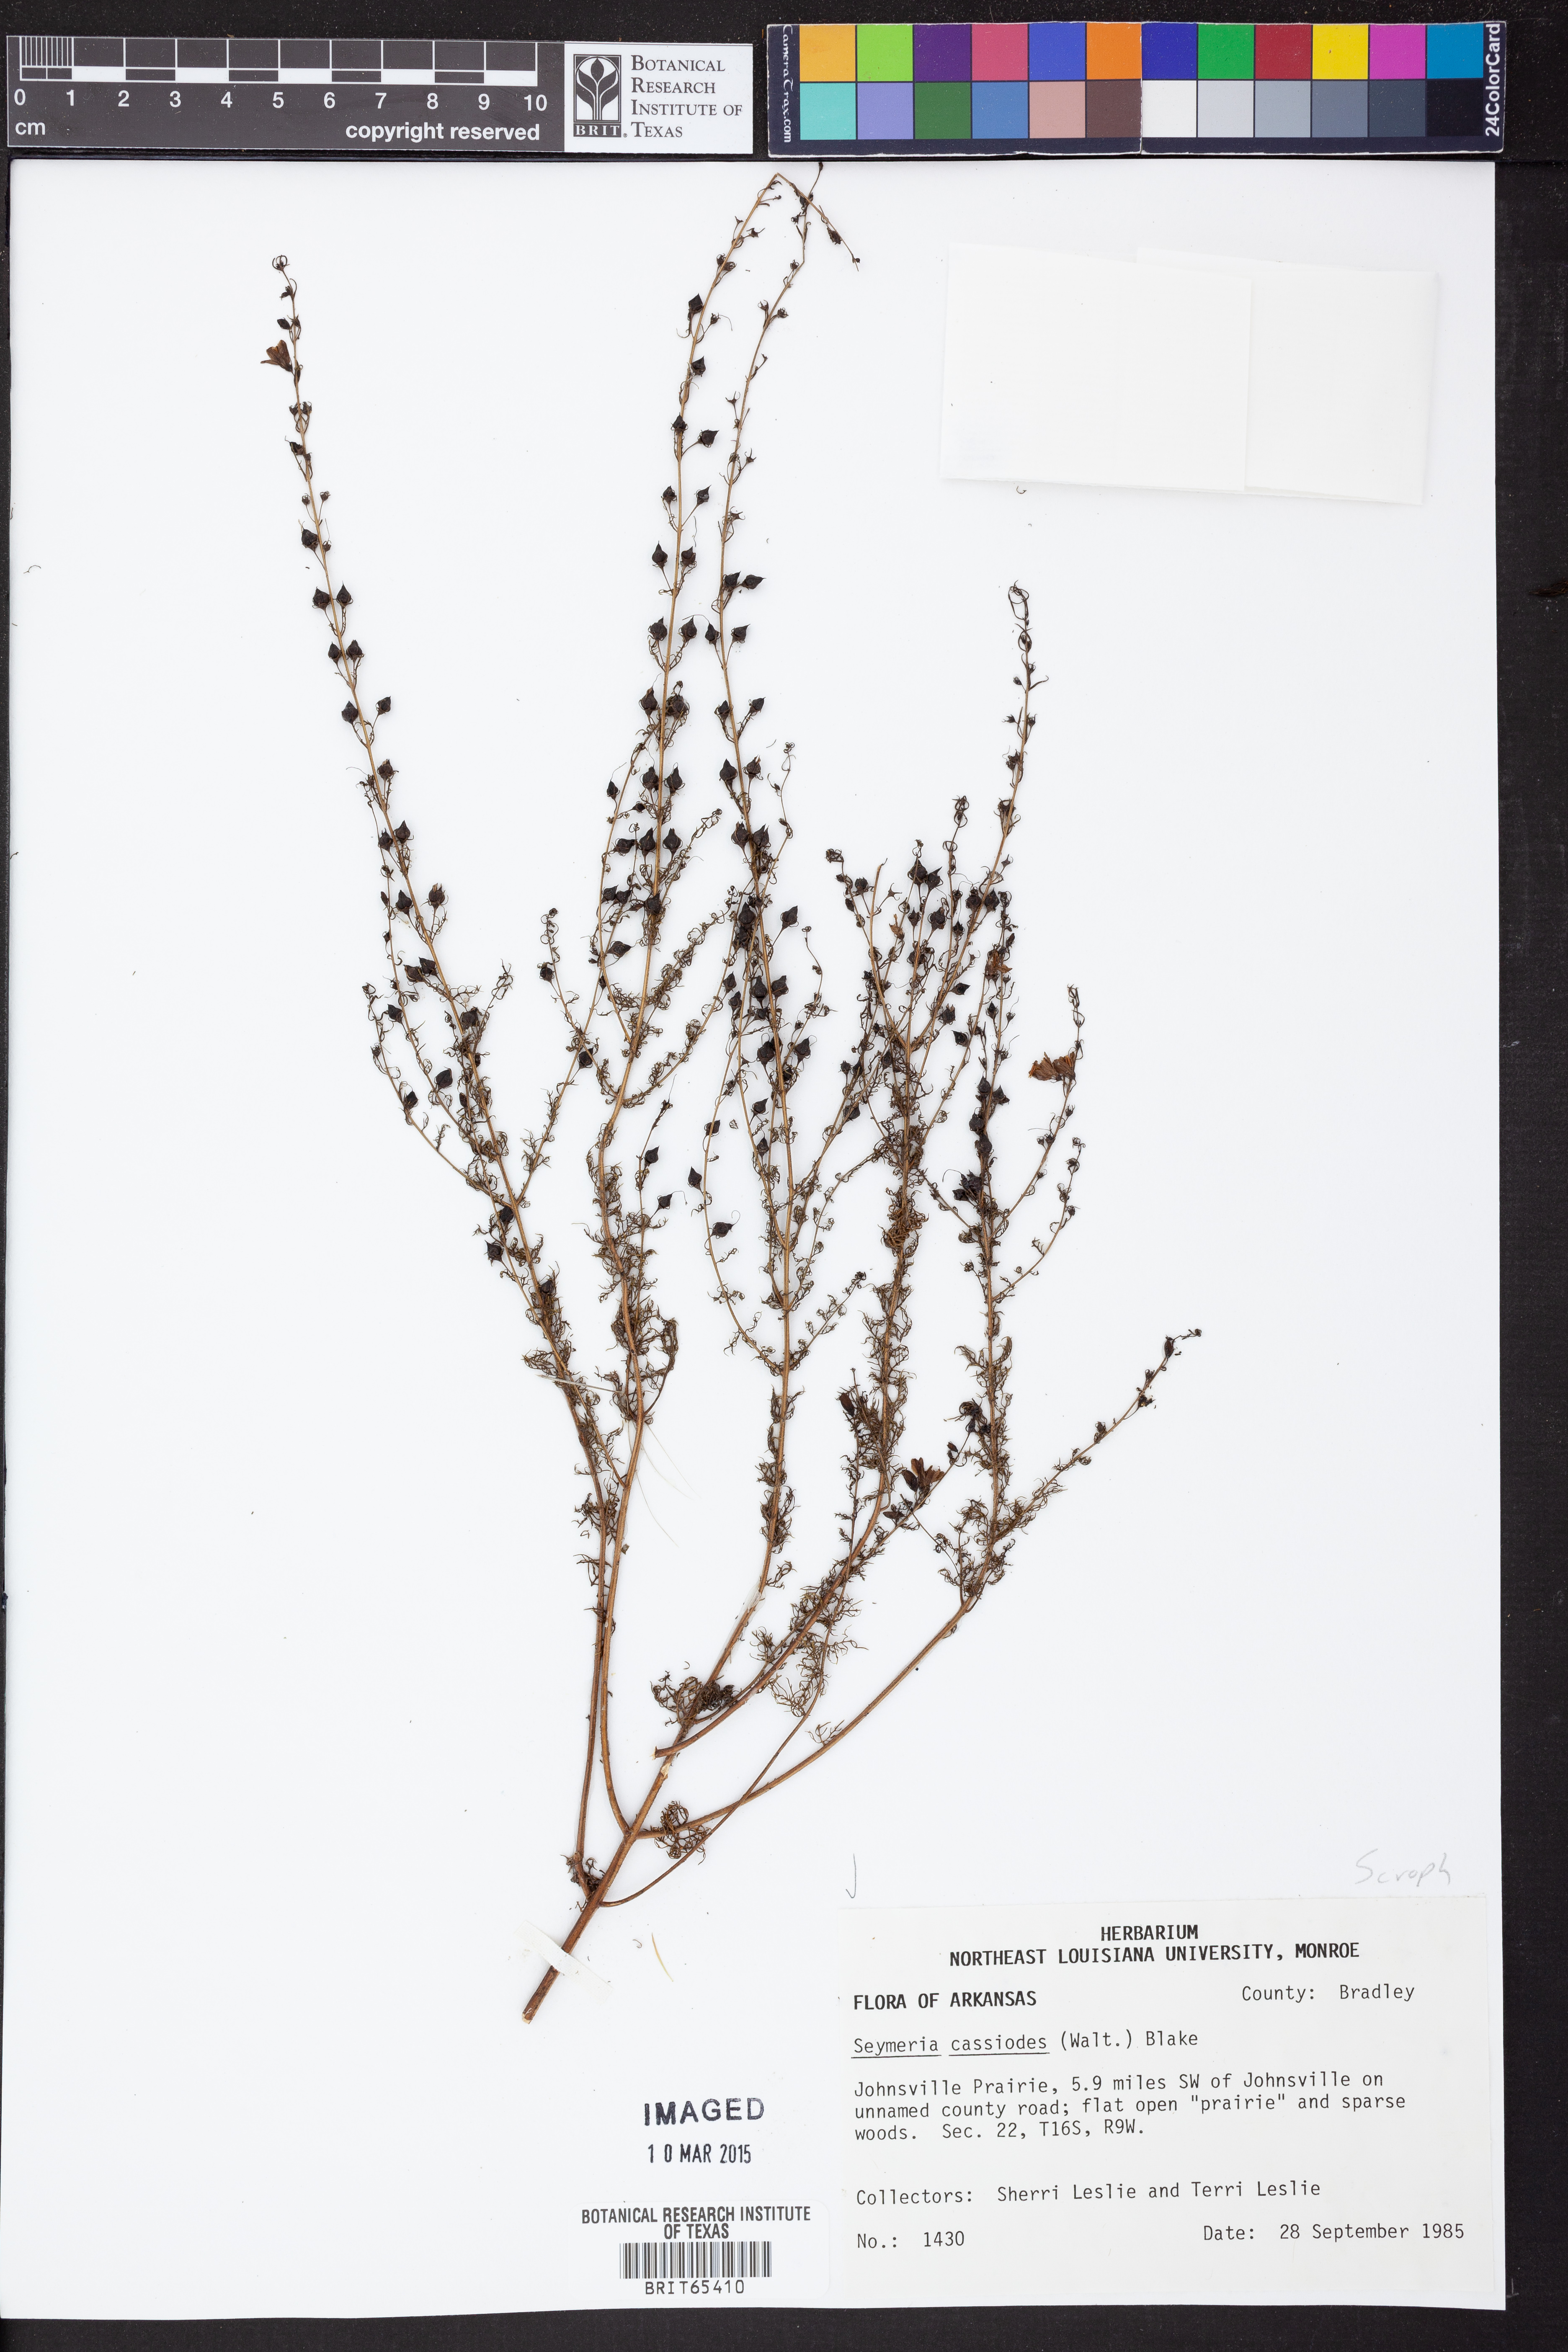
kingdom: Plantae
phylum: Tracheophyta
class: Magnoliopsida
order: Lamiales
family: Orobanchaceae
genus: Seymeria
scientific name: Seymeria cassioides
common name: Yaupon black-senna
